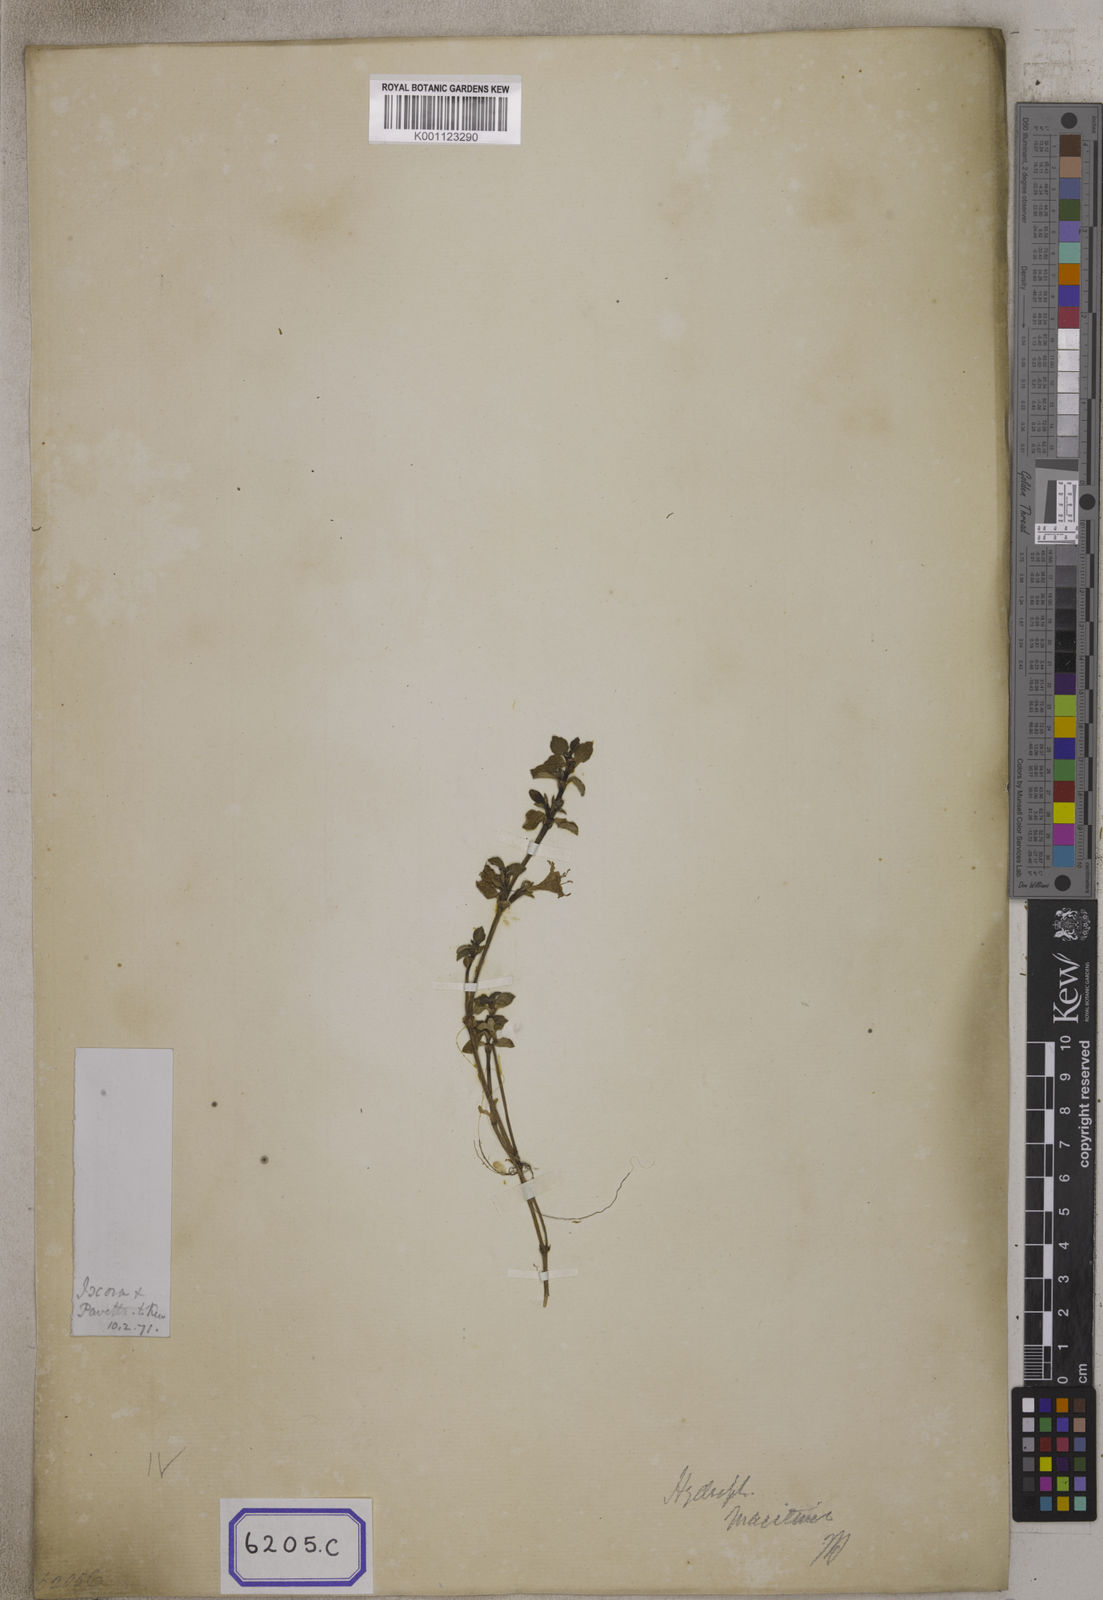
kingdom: Plantae
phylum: Tracheophyta
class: Magnoliopsida
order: Gentianales
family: Rubiaceae
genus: Hydrophylax
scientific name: Hydrophylax maritima
